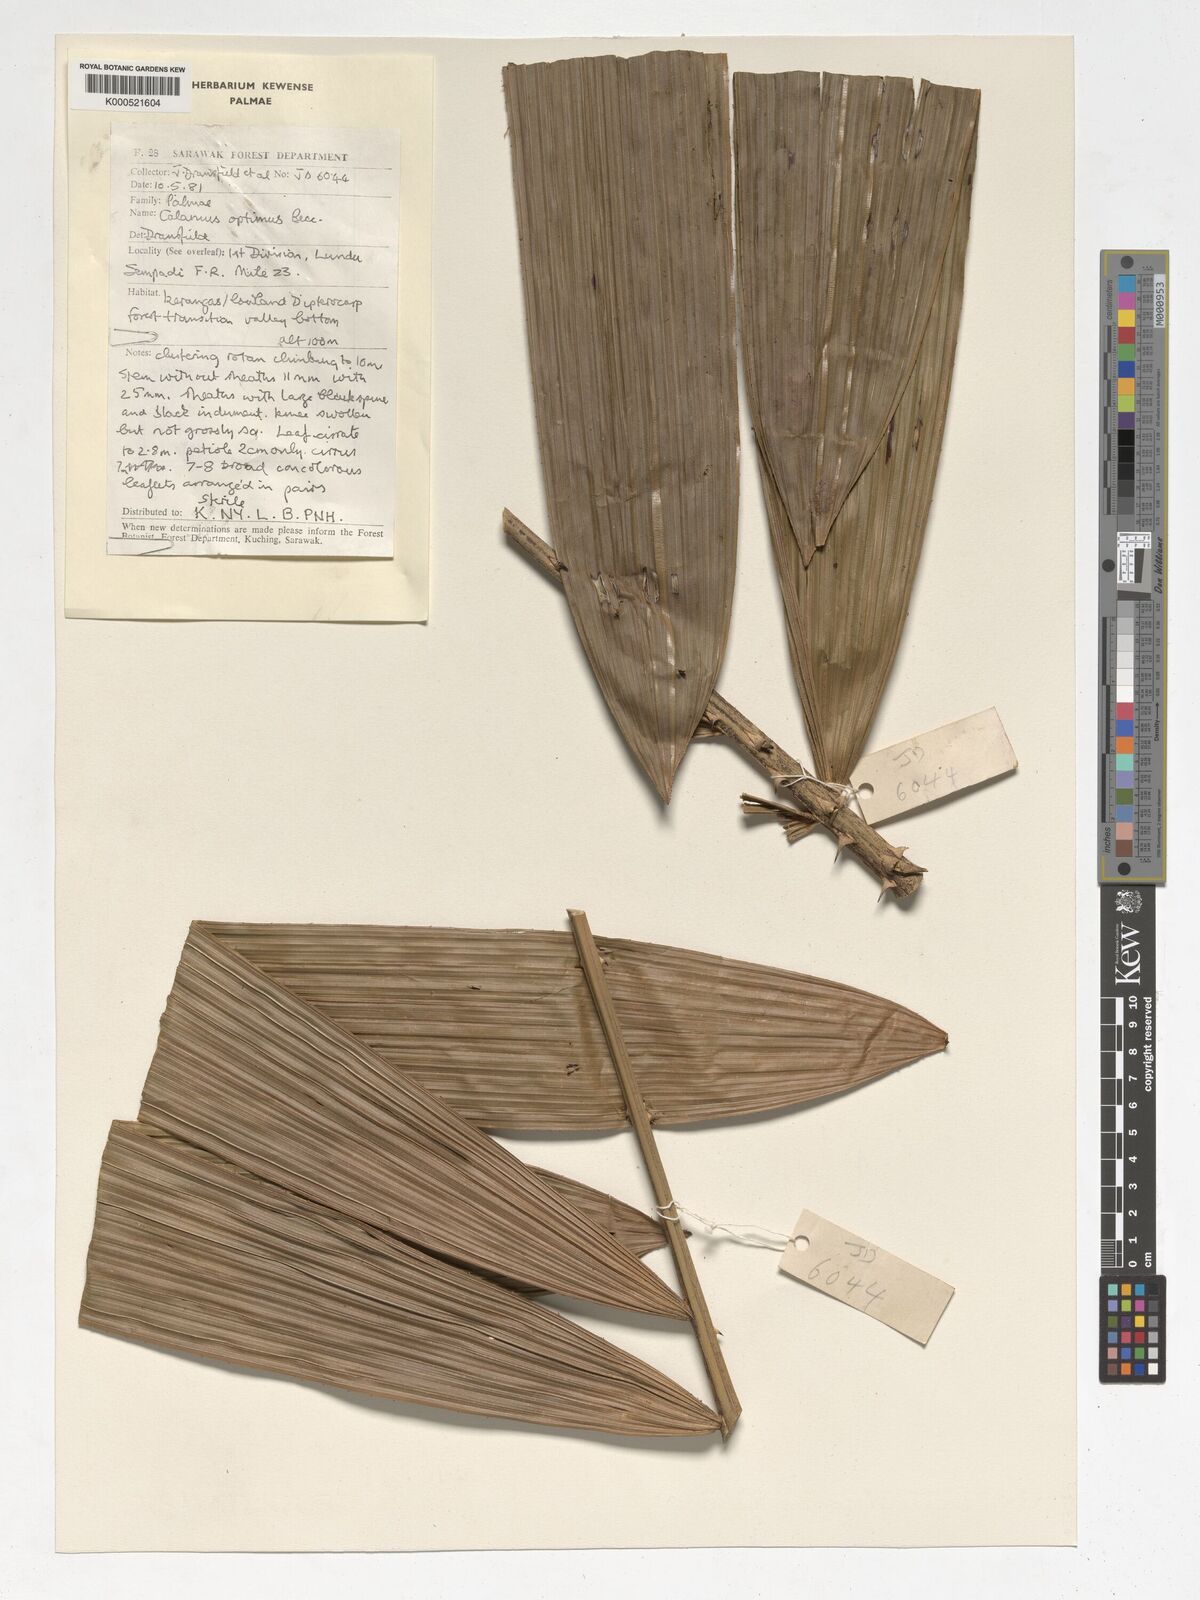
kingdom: Plantae
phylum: Tracheophyta
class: Liliopsida
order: Arecales
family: Arecaceae
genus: Calamus
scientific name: Calamus optimus
